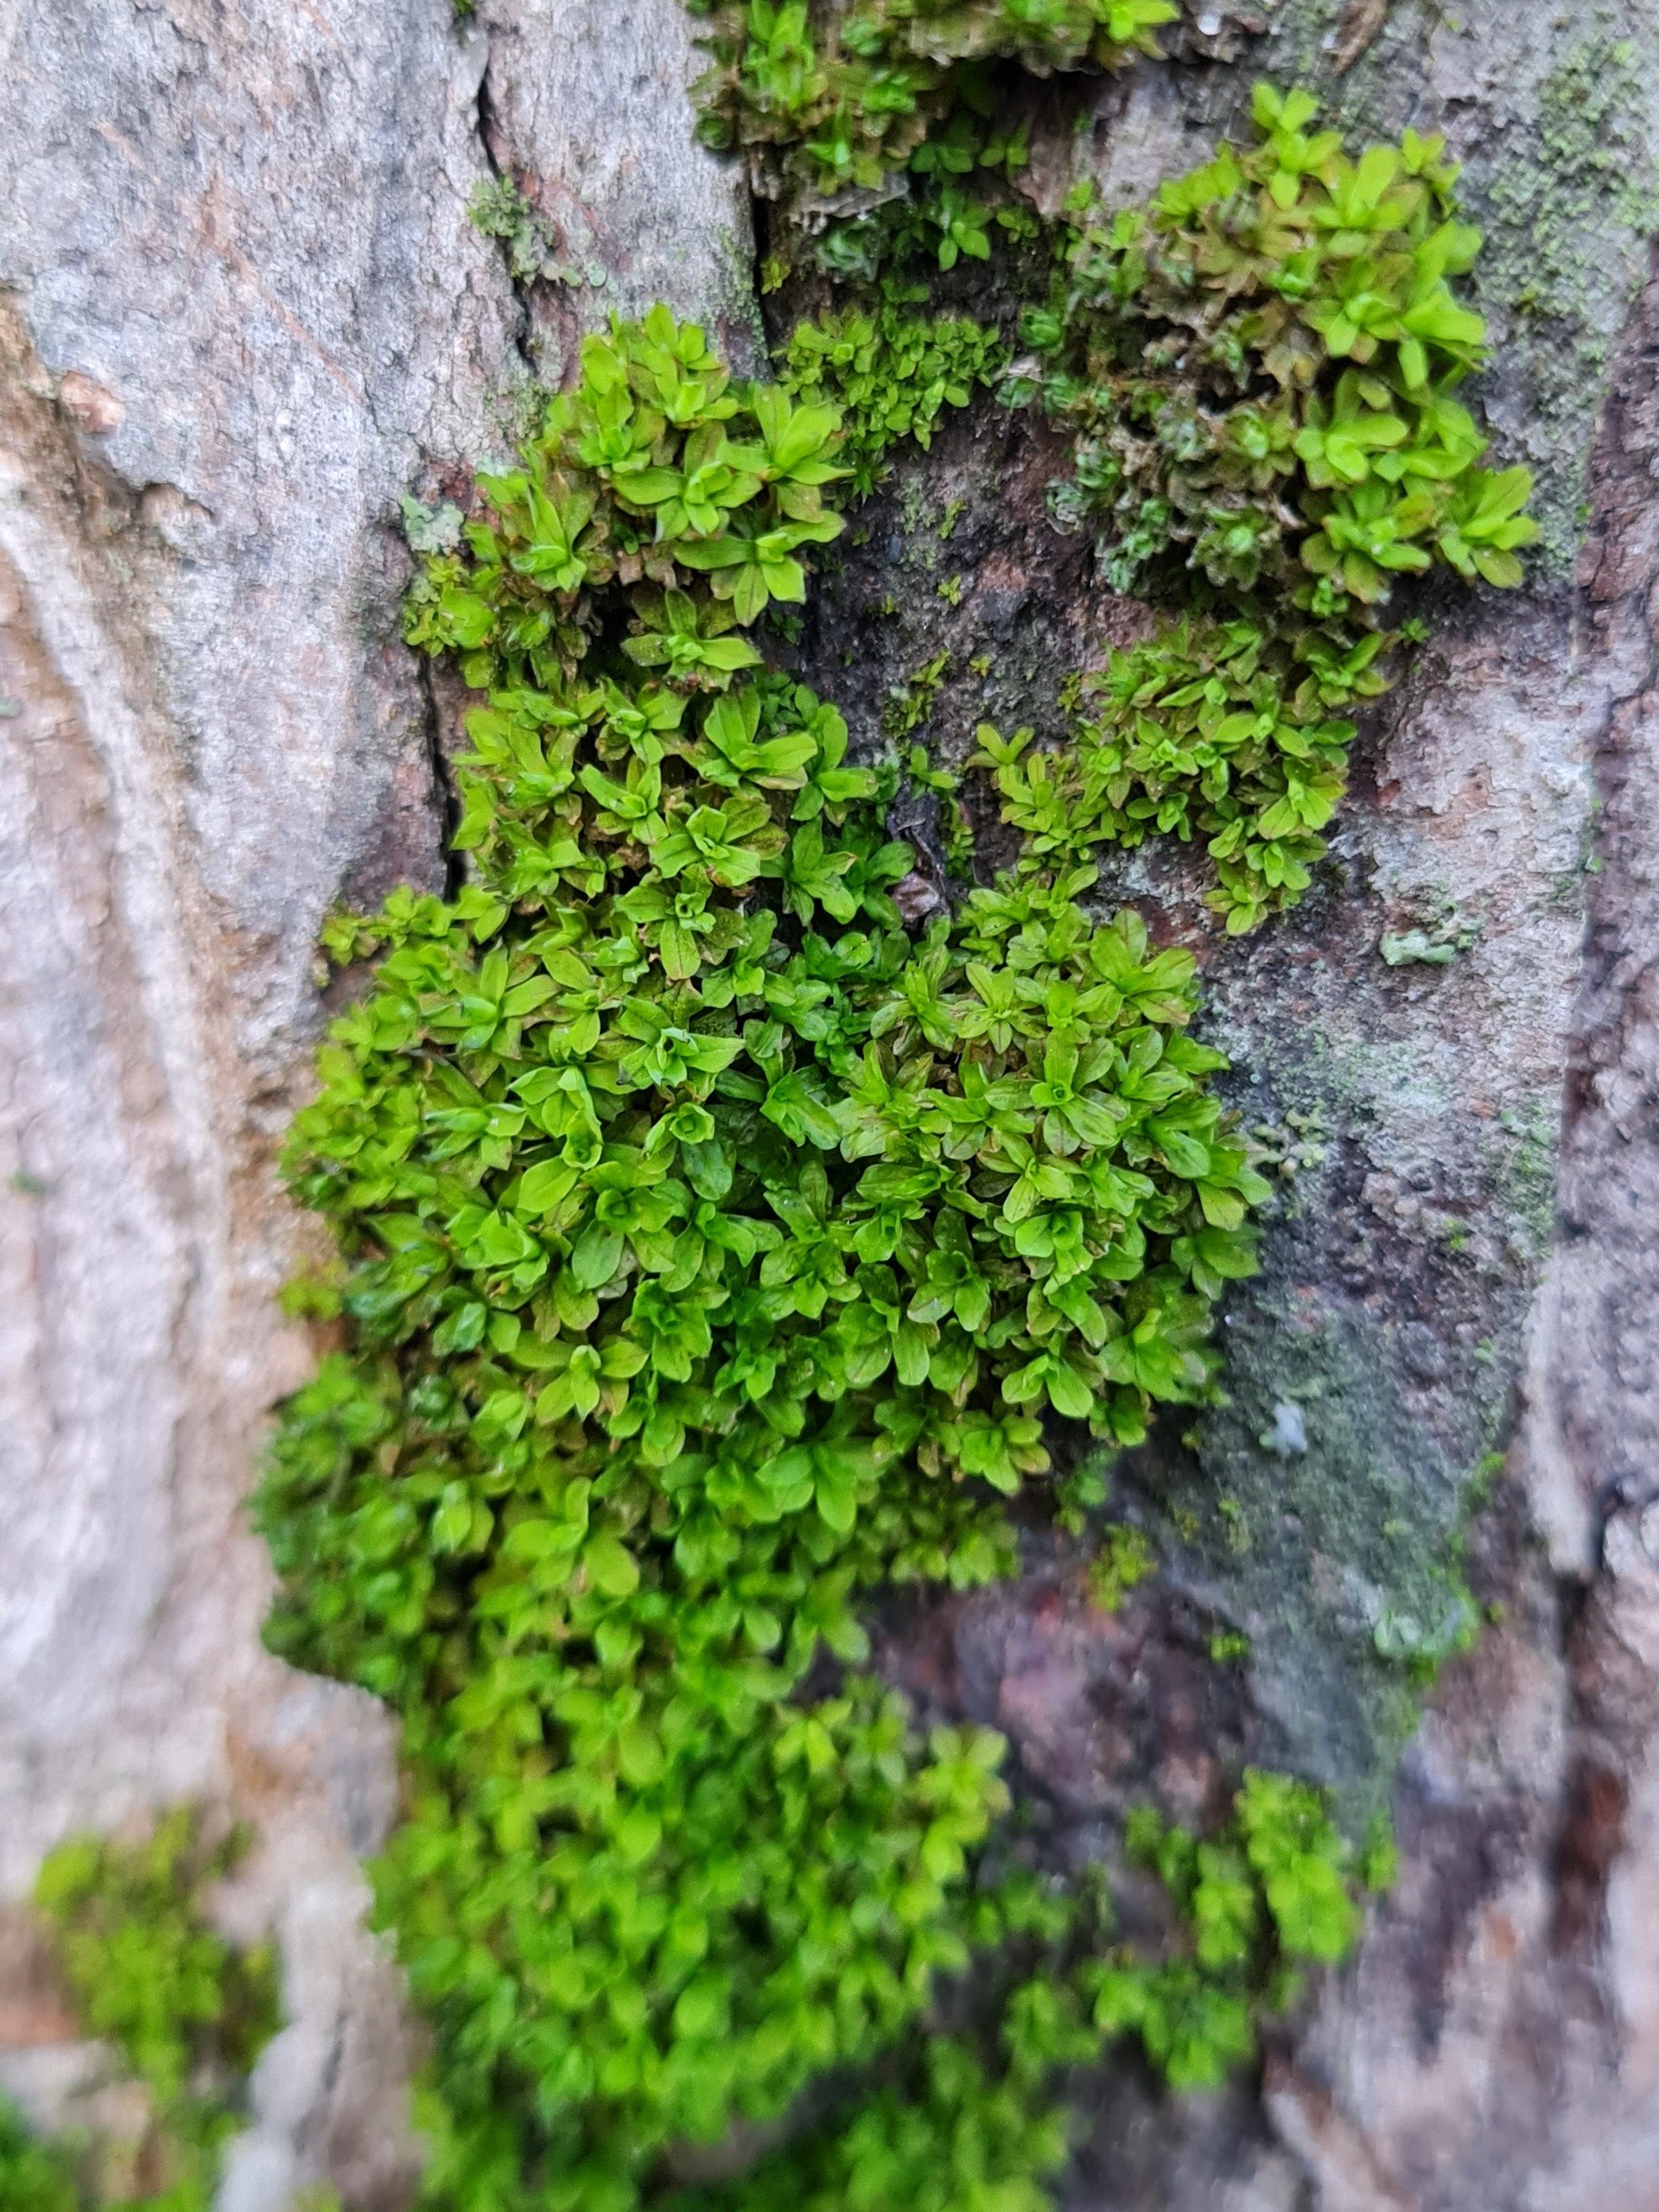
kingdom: Plantae
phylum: Bryophyta
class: Bryopsida
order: Pottiales
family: Pottiaceae
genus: Syntrichia
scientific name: Syntrichia latifolia
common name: Butbladet hårstjerne
